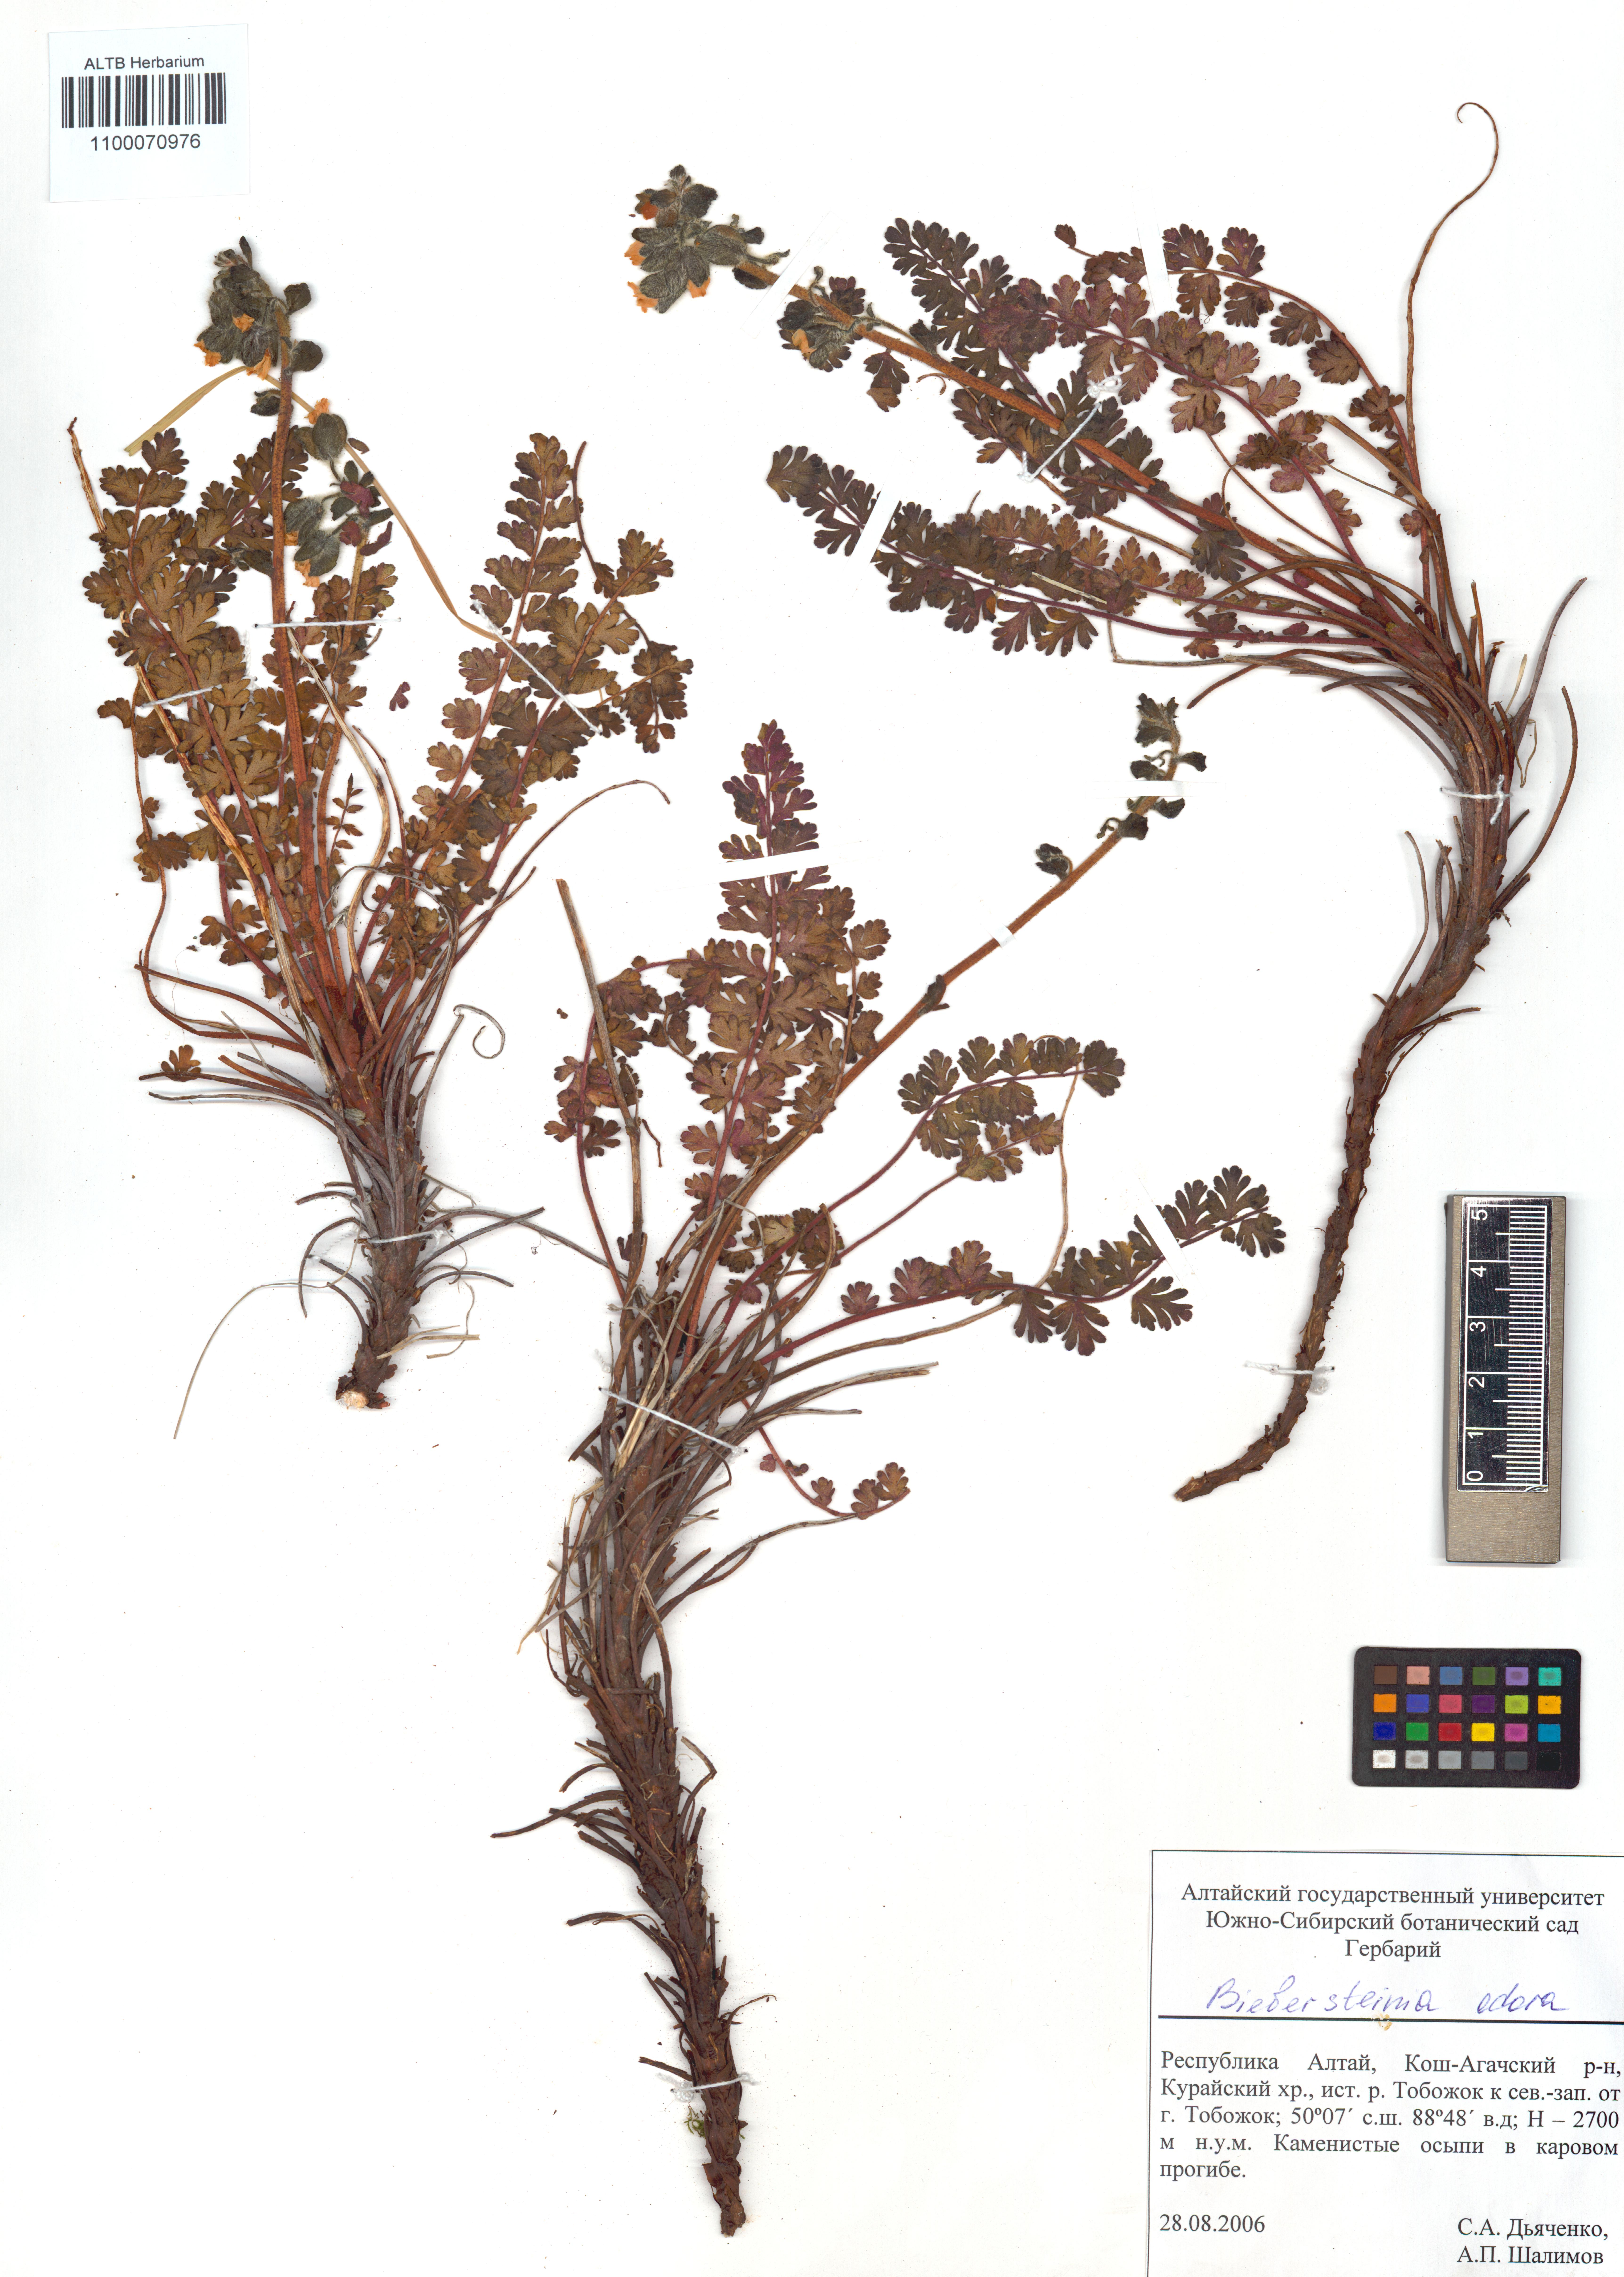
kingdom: Plantae
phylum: Tracheophyta
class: Magnoliopsida
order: Sapindales
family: Biebersteiniaceae
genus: Biebersteinia
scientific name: Biebersteinia odora
